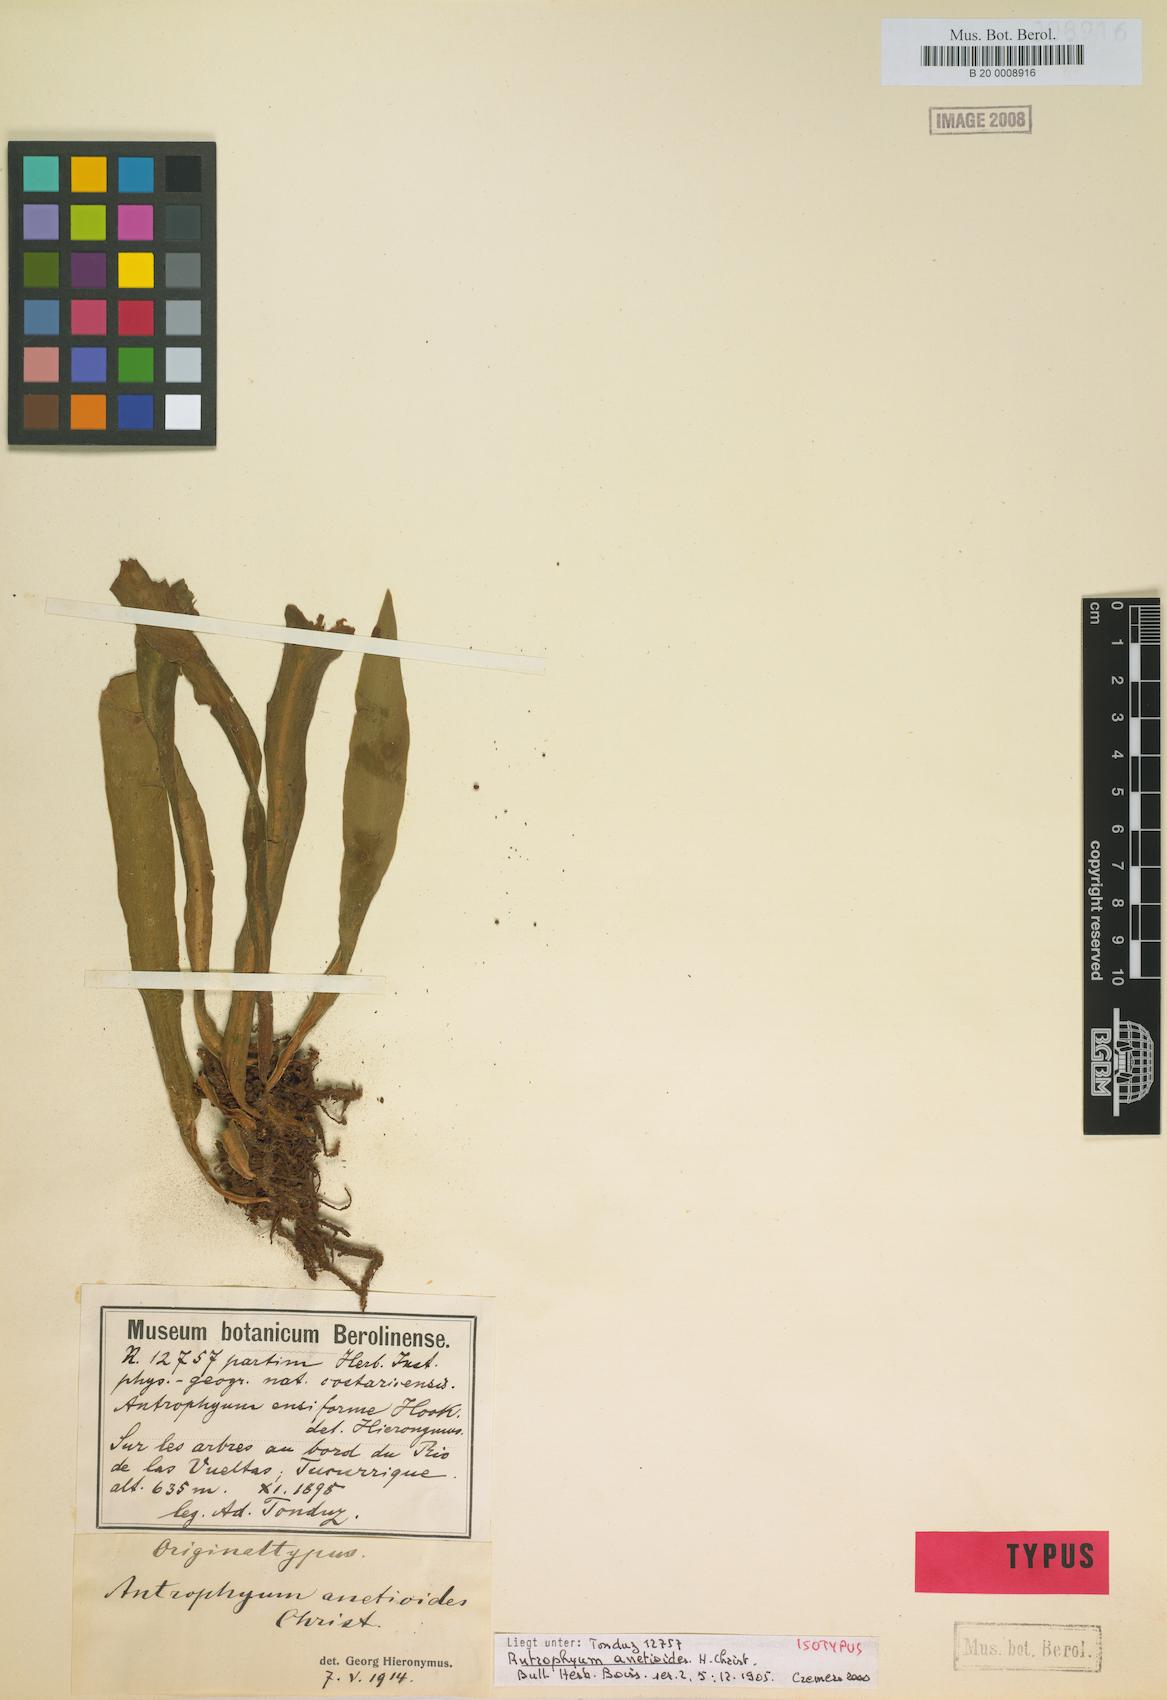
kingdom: Plantae
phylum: Tracheophyta
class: Polypodiopsida
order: Polypodiales
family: Pteridaceae
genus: Polytaenium
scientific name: Polytaenium anetioides
